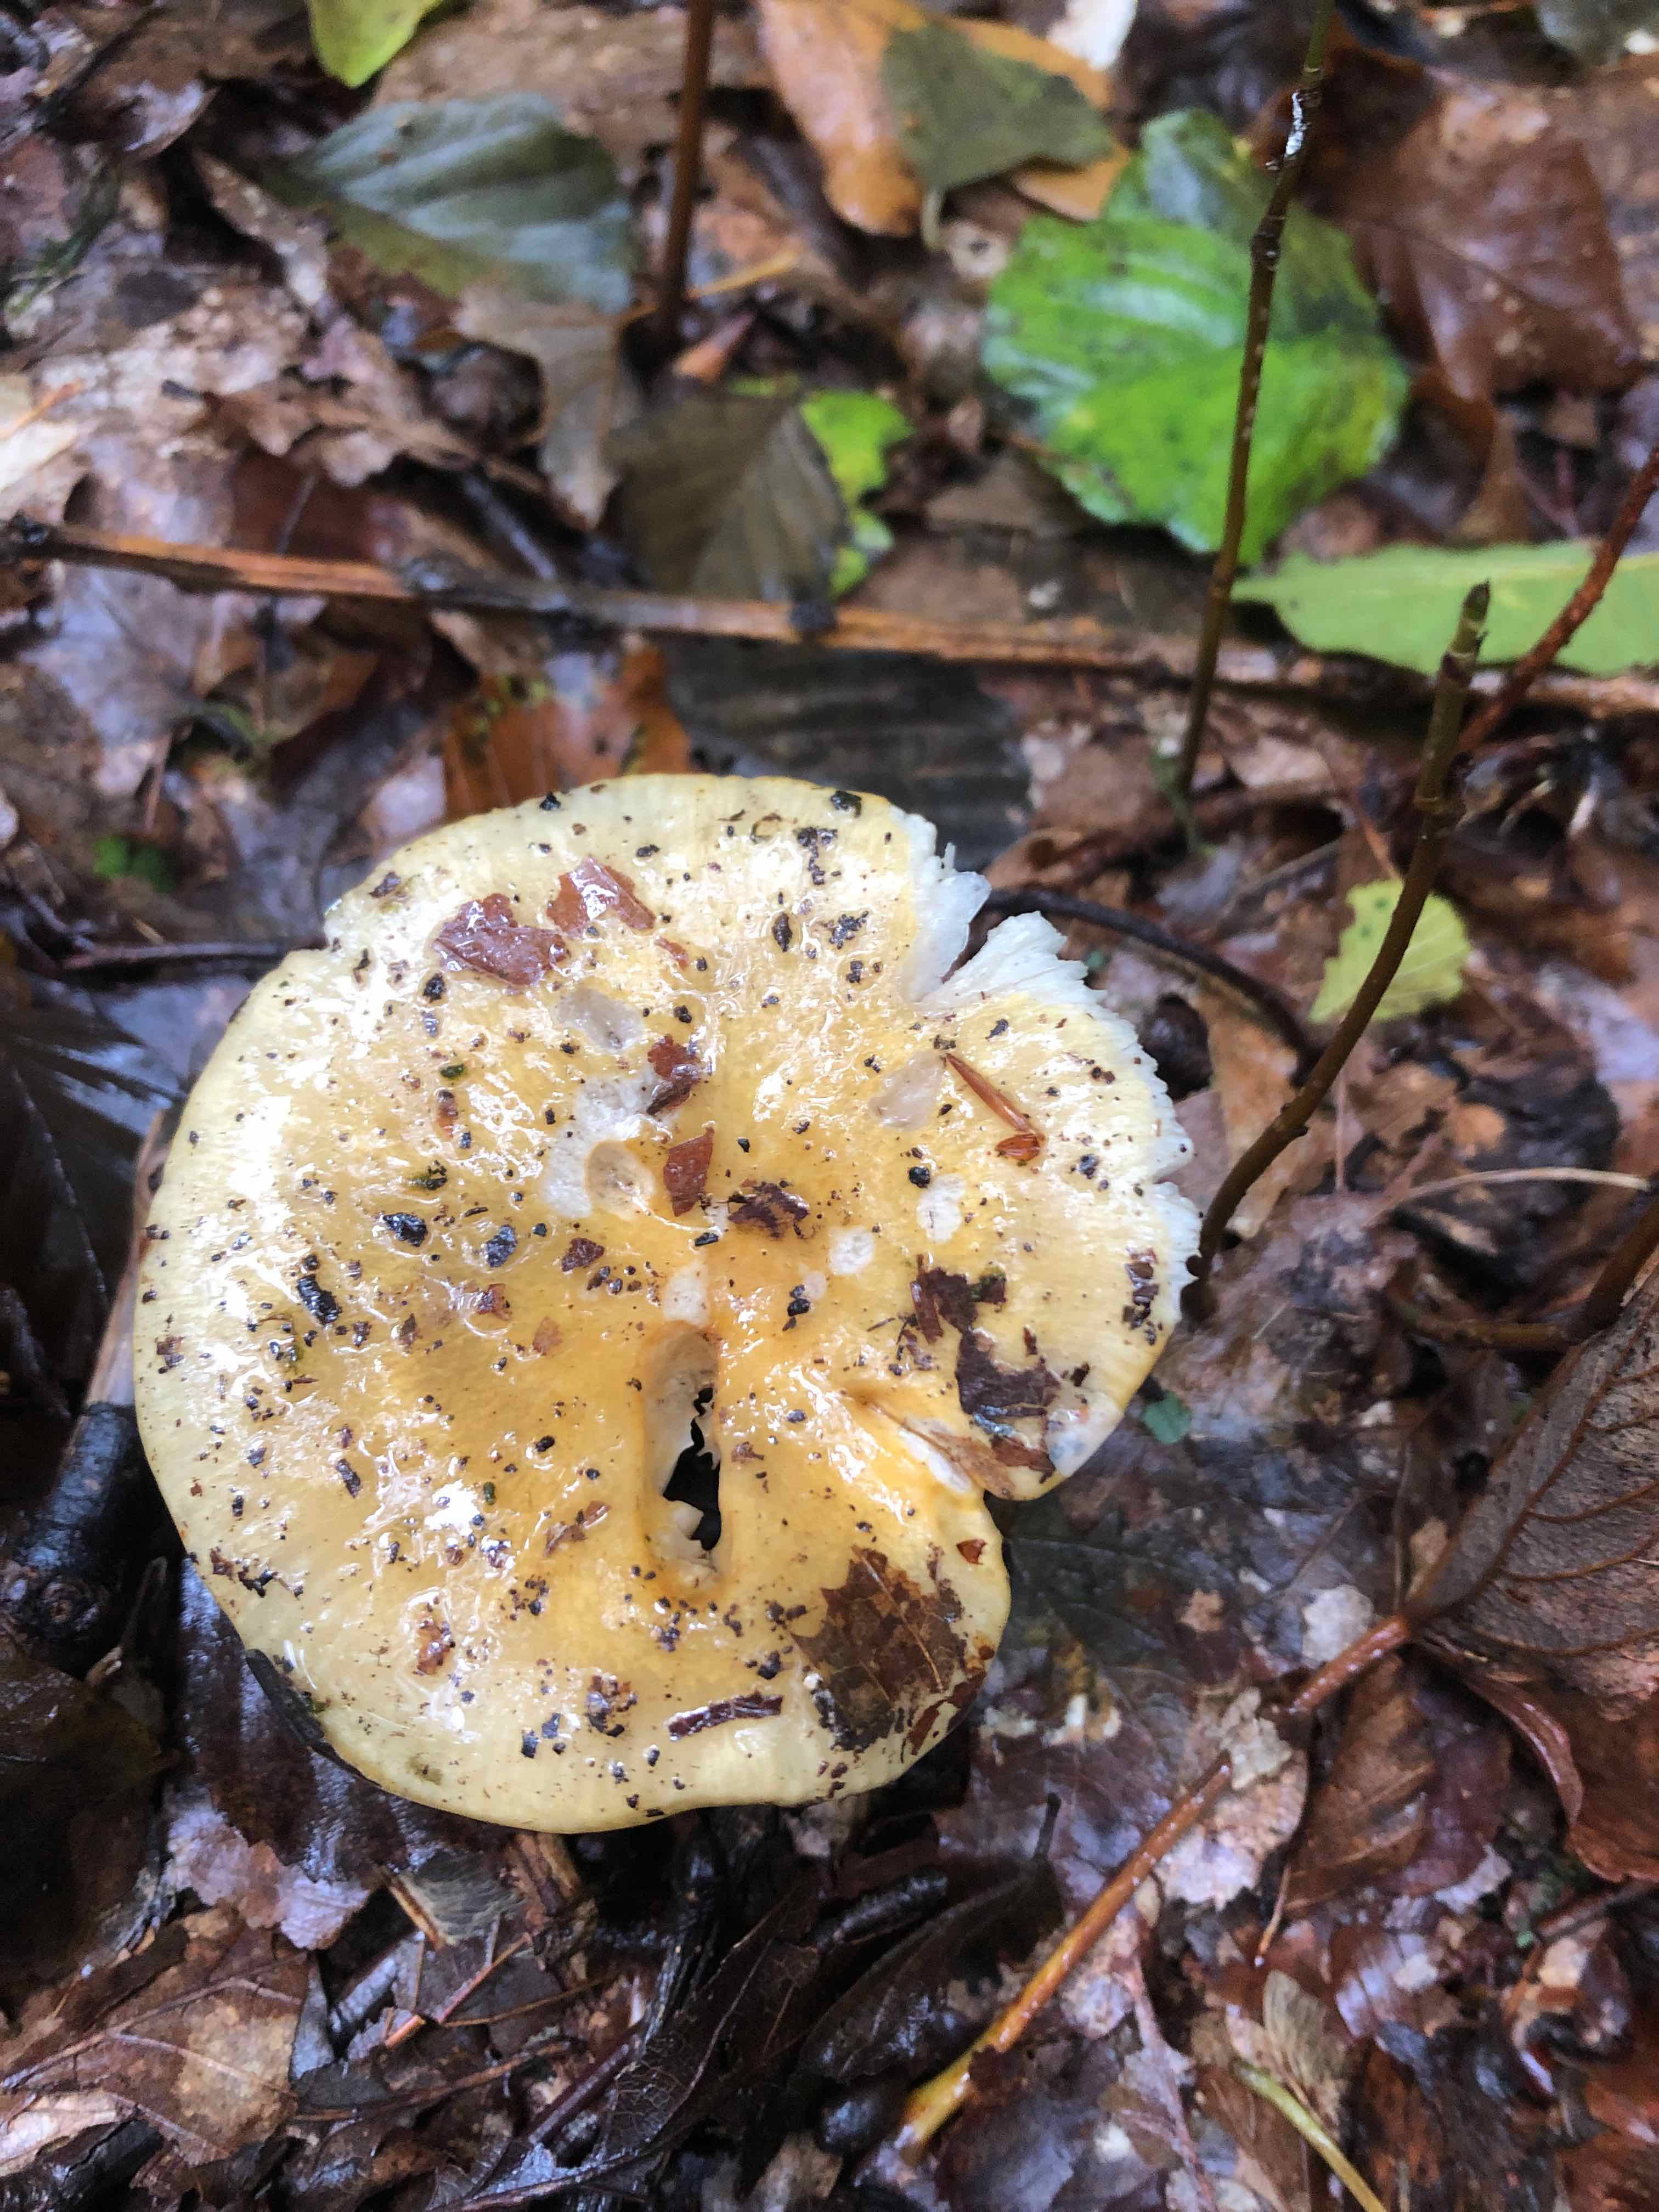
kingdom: Fungi
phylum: Basidiomycota
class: Agaricomycetes
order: Russulales
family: Russulaceae
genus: Russula
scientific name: Russula ochroleuca
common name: okkergul skørhat
